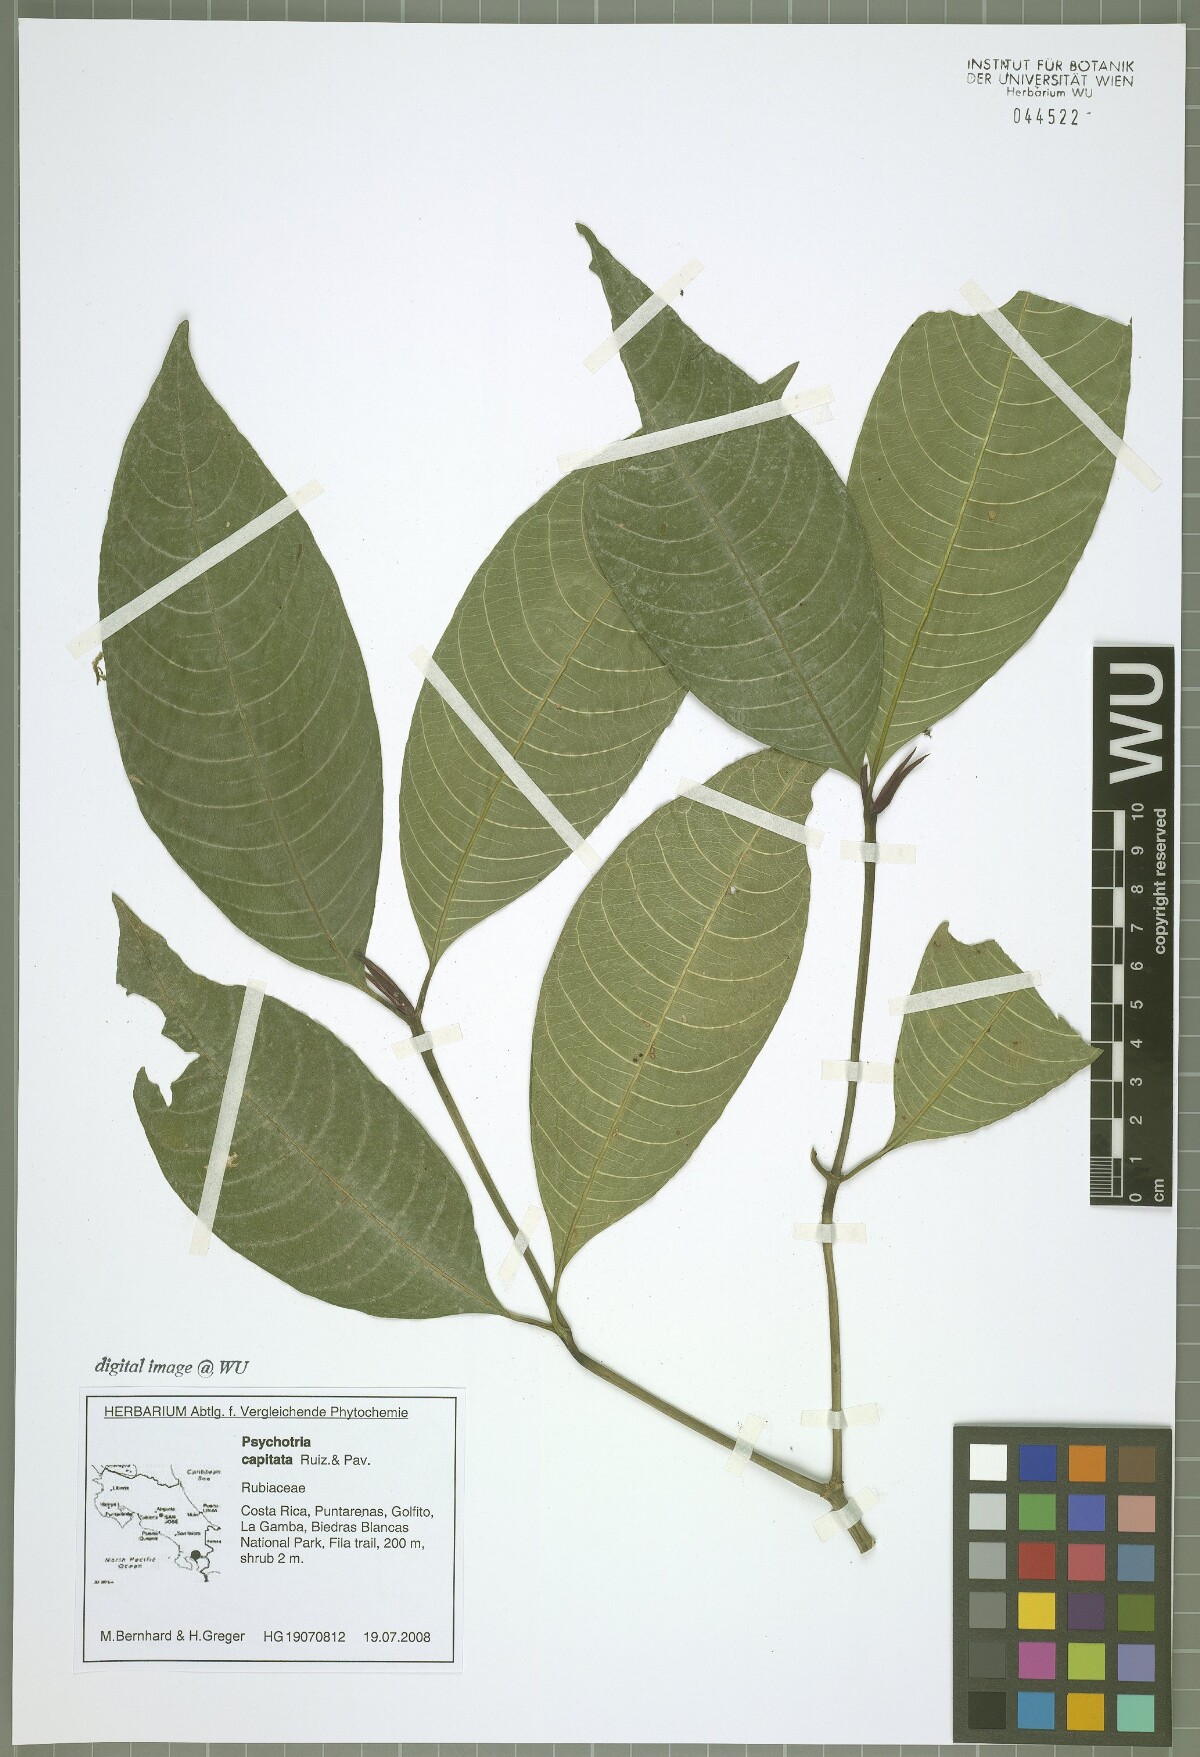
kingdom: Plantae
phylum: Tracheophyta
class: Magnoliopsida
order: Gentianales
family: Rubiaceae
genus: Palicourea
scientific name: Palicourea violacea
